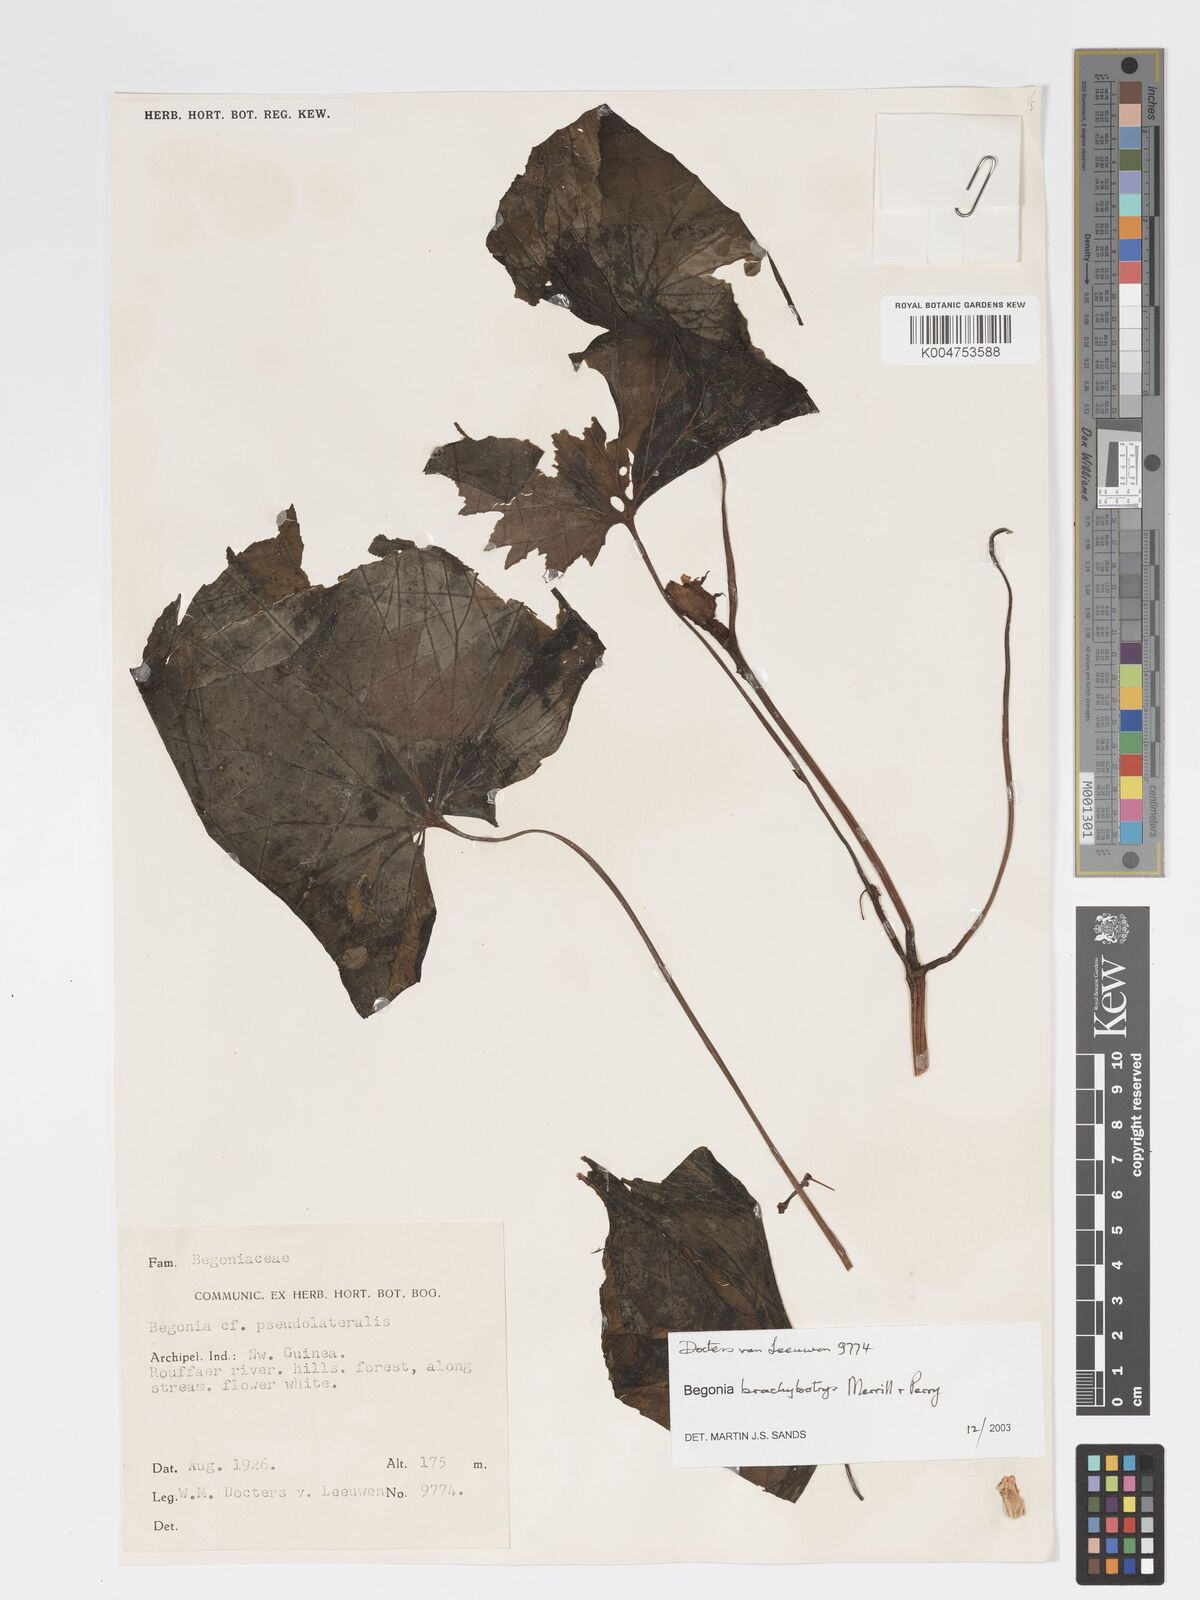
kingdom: Plantae
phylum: Tracheophyta
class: Magnoliopsida
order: Cucurbitales
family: Begoniaceae
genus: Begonia
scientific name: Begonia brachybotrys
